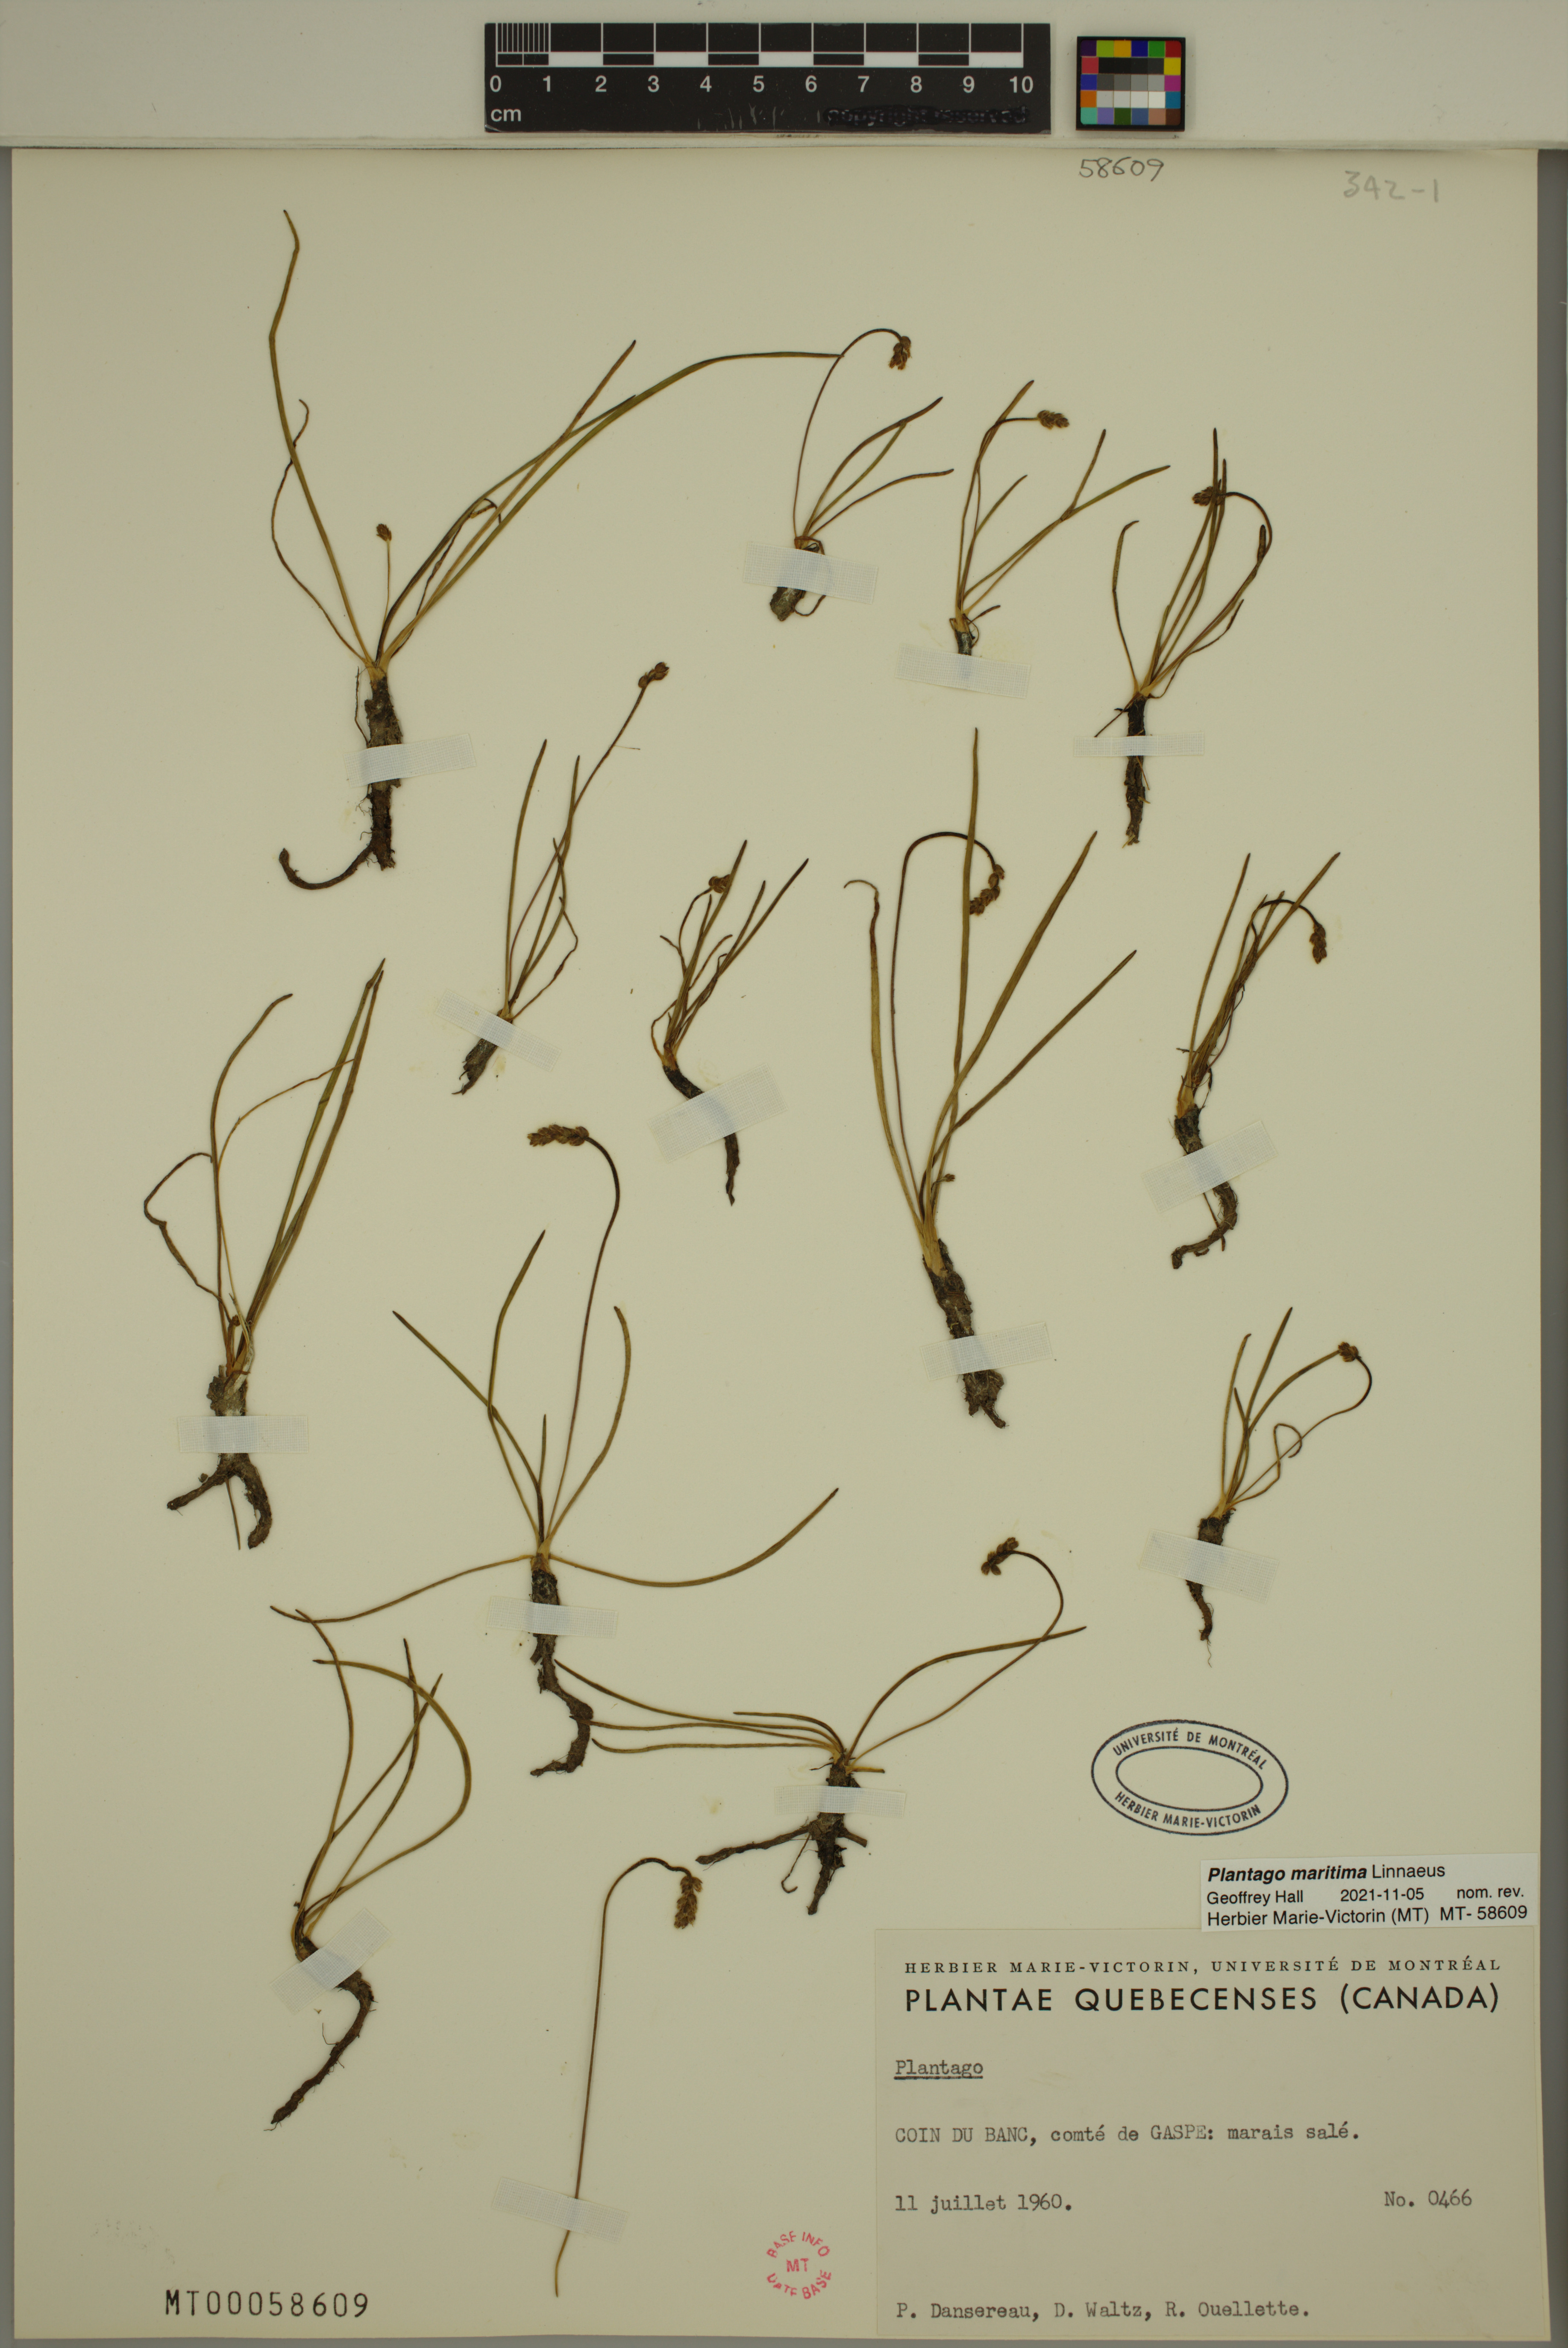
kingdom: Plantae
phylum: Tracheophyta
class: Magnoliopsida
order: Lamiales
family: Plantaginaceae
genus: Plantago
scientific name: Plantago maritima
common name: Sea plantain
